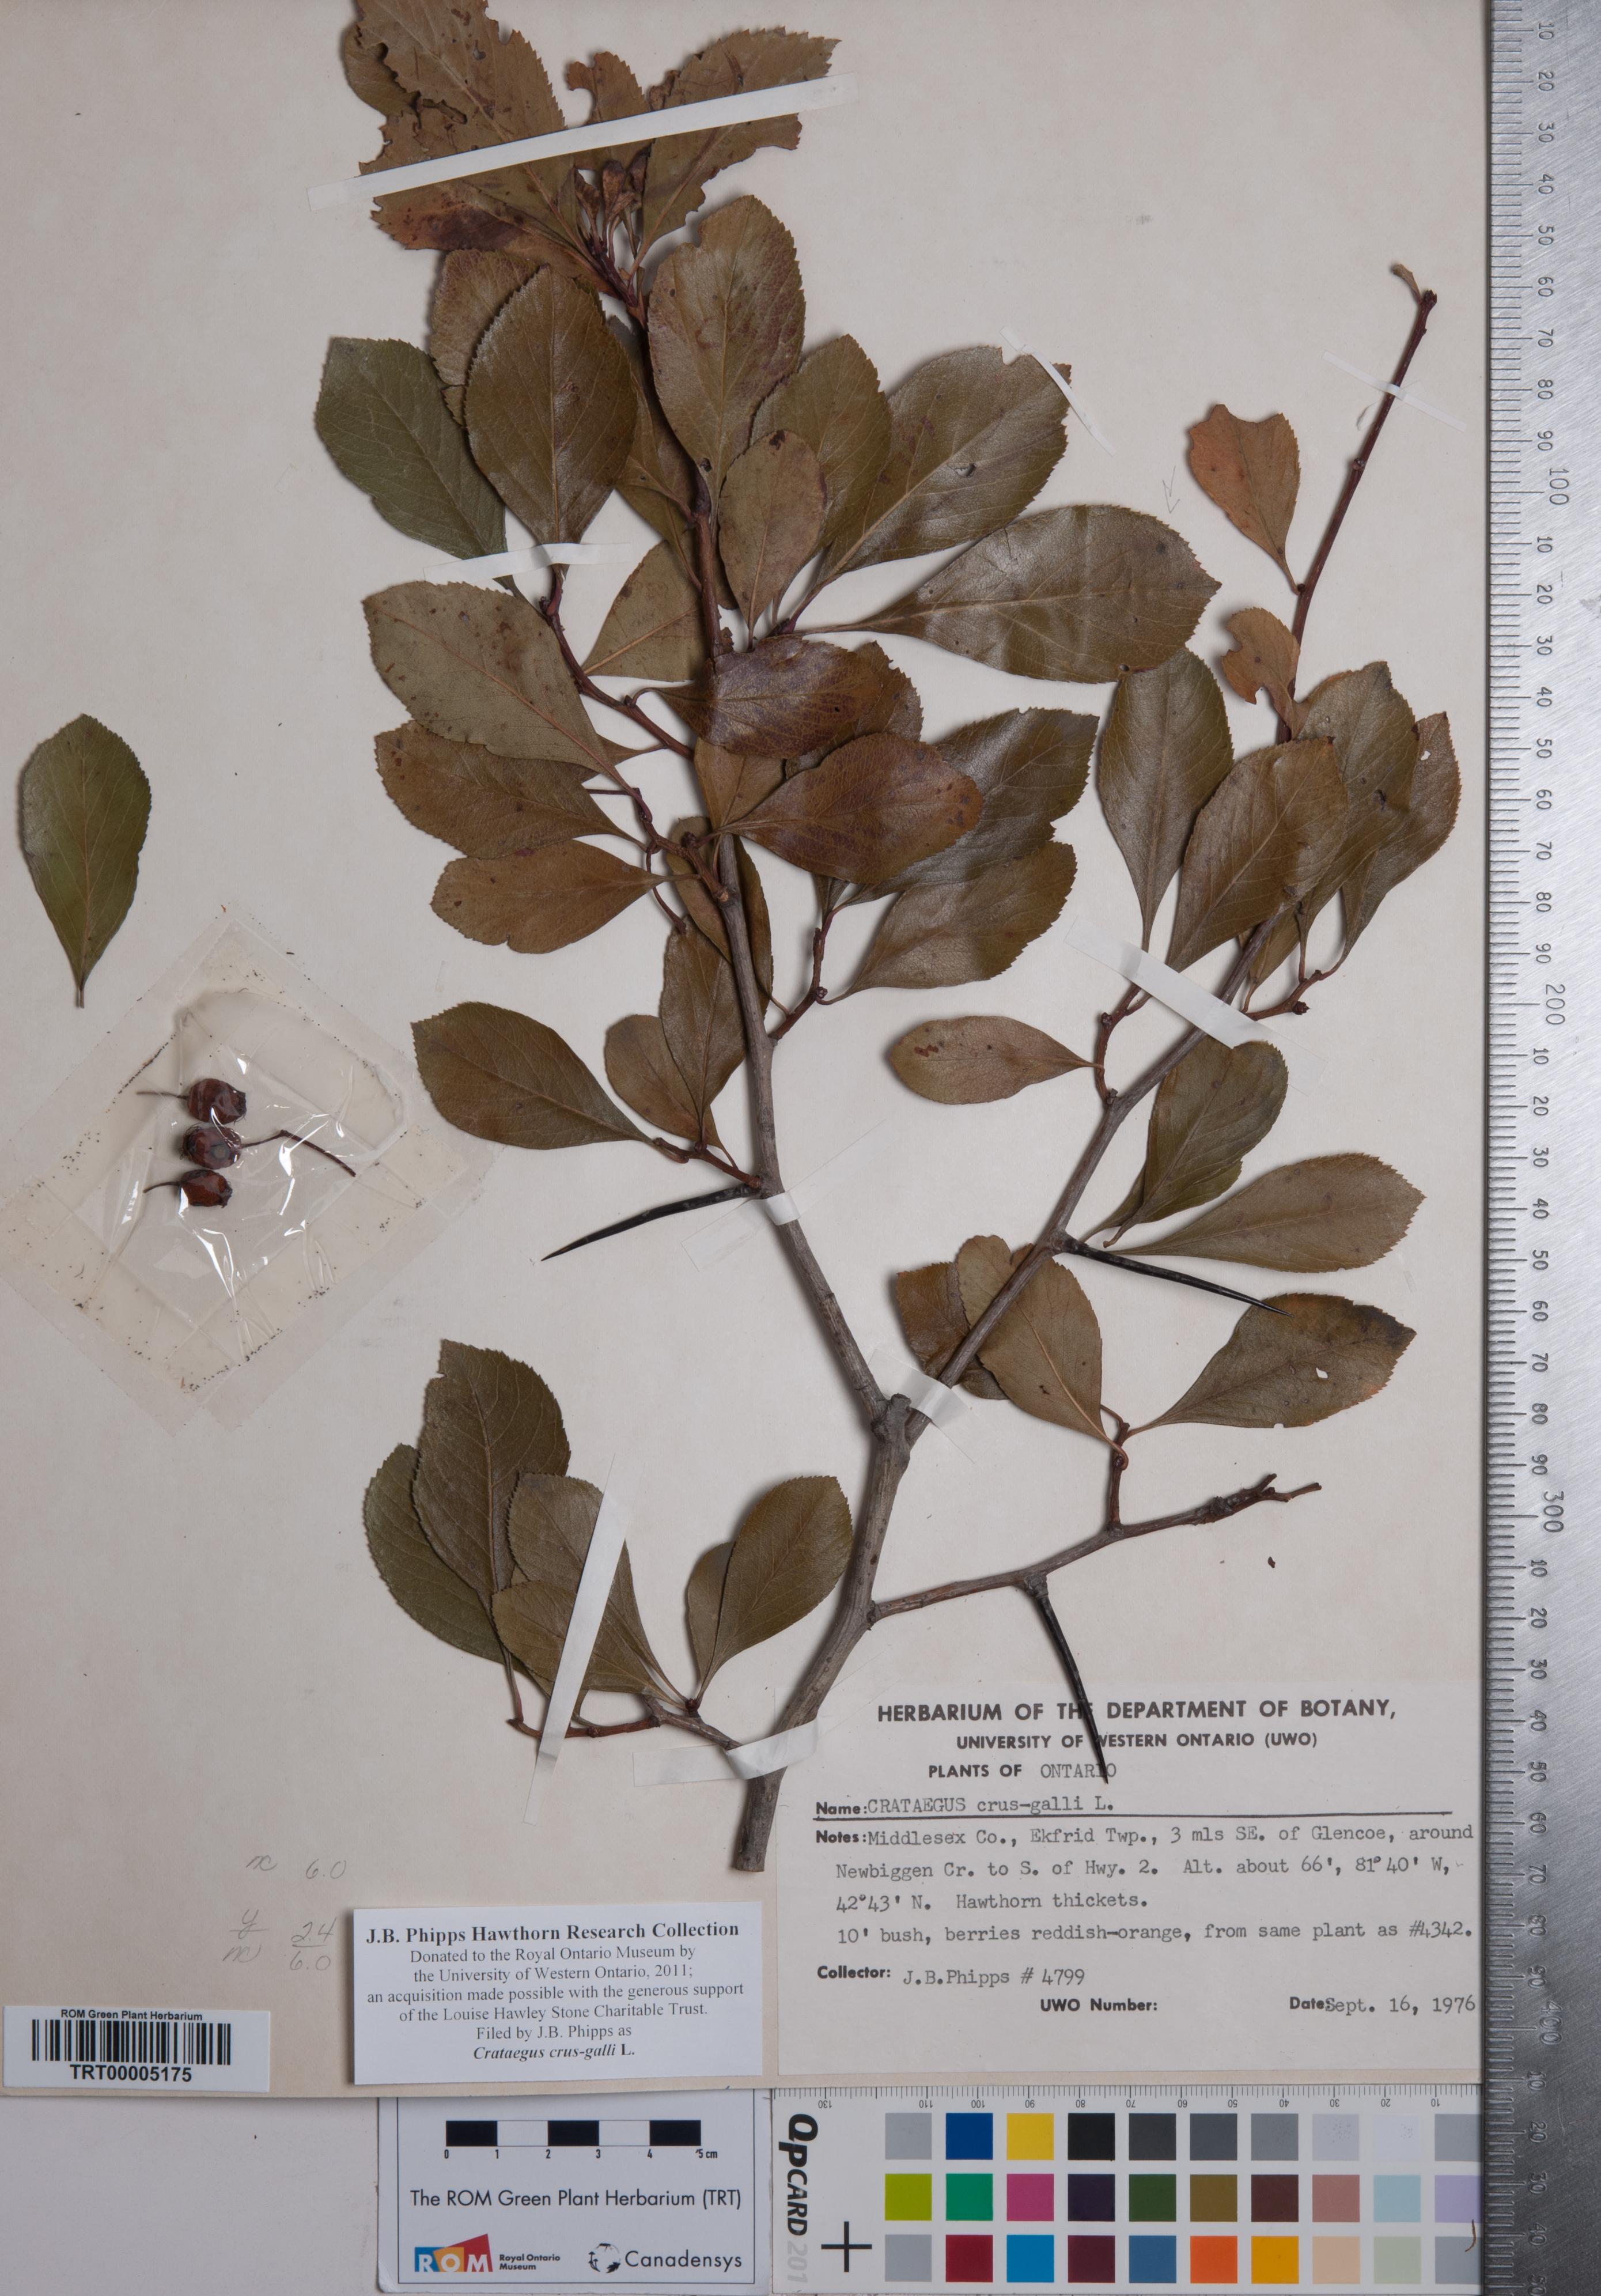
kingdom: Plantae
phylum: Tracheophyta
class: Magnoliopsida
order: Rosales
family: Rosaceae
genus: Crataegus
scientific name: Crataegus crus-galli
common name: Cockspurthorn
